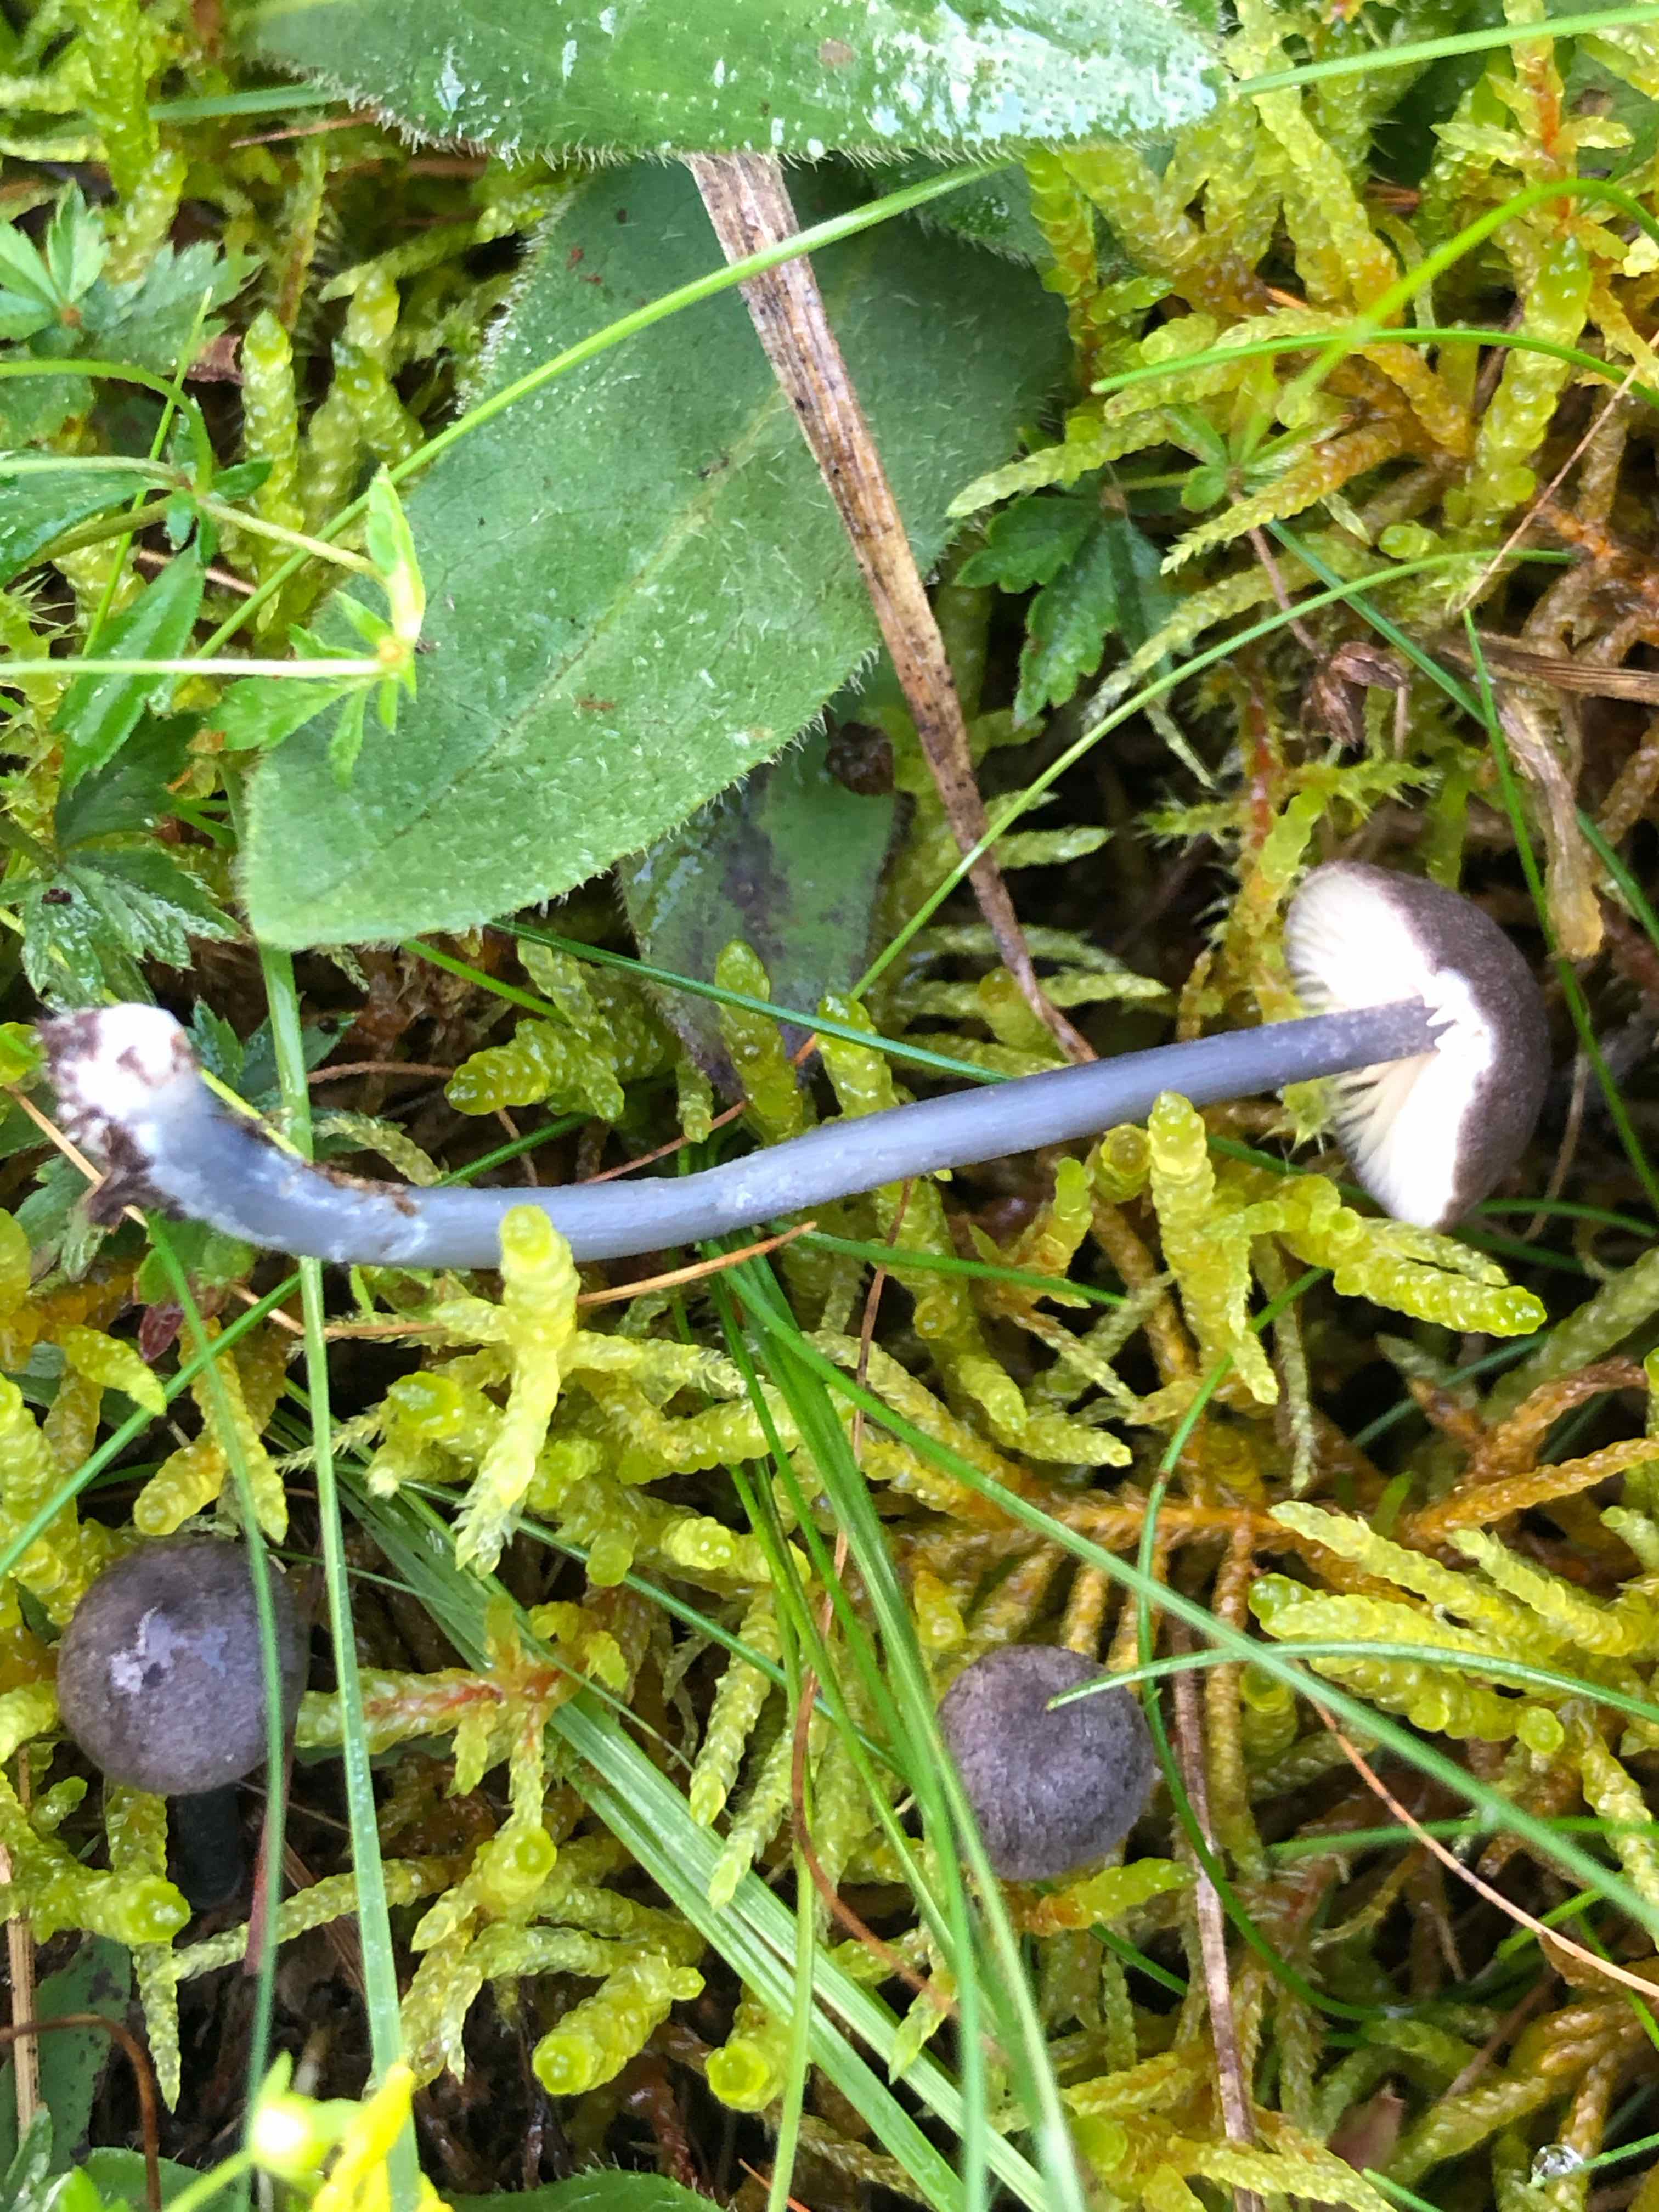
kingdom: Fungi
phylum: Basidiomycota
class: Agaricomycetes
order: Agaricales
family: Entolomataceae
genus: Entoloma
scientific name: Entoloma
